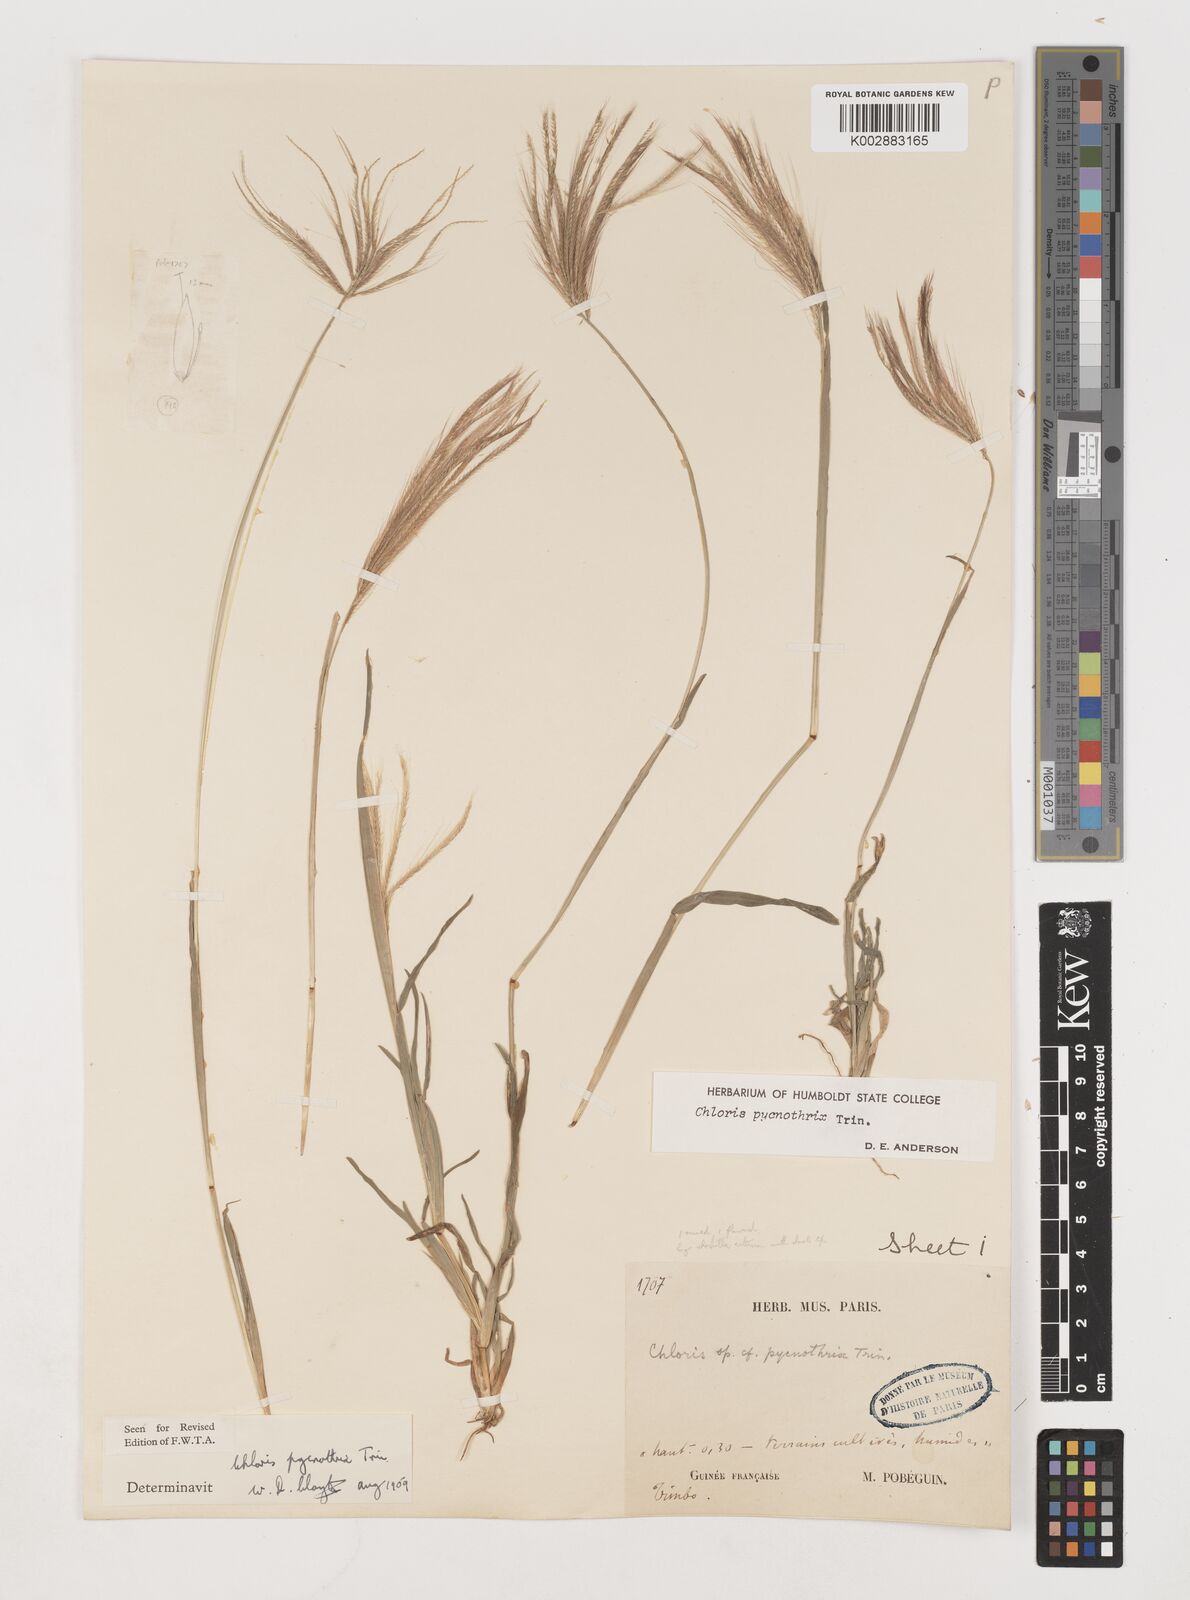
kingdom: Plantae
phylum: Tracheophyta
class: Liliopsida
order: Poales
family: Poaceae
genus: Chloris
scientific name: Chloris pycnothrix
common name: Spiderweb chloris
